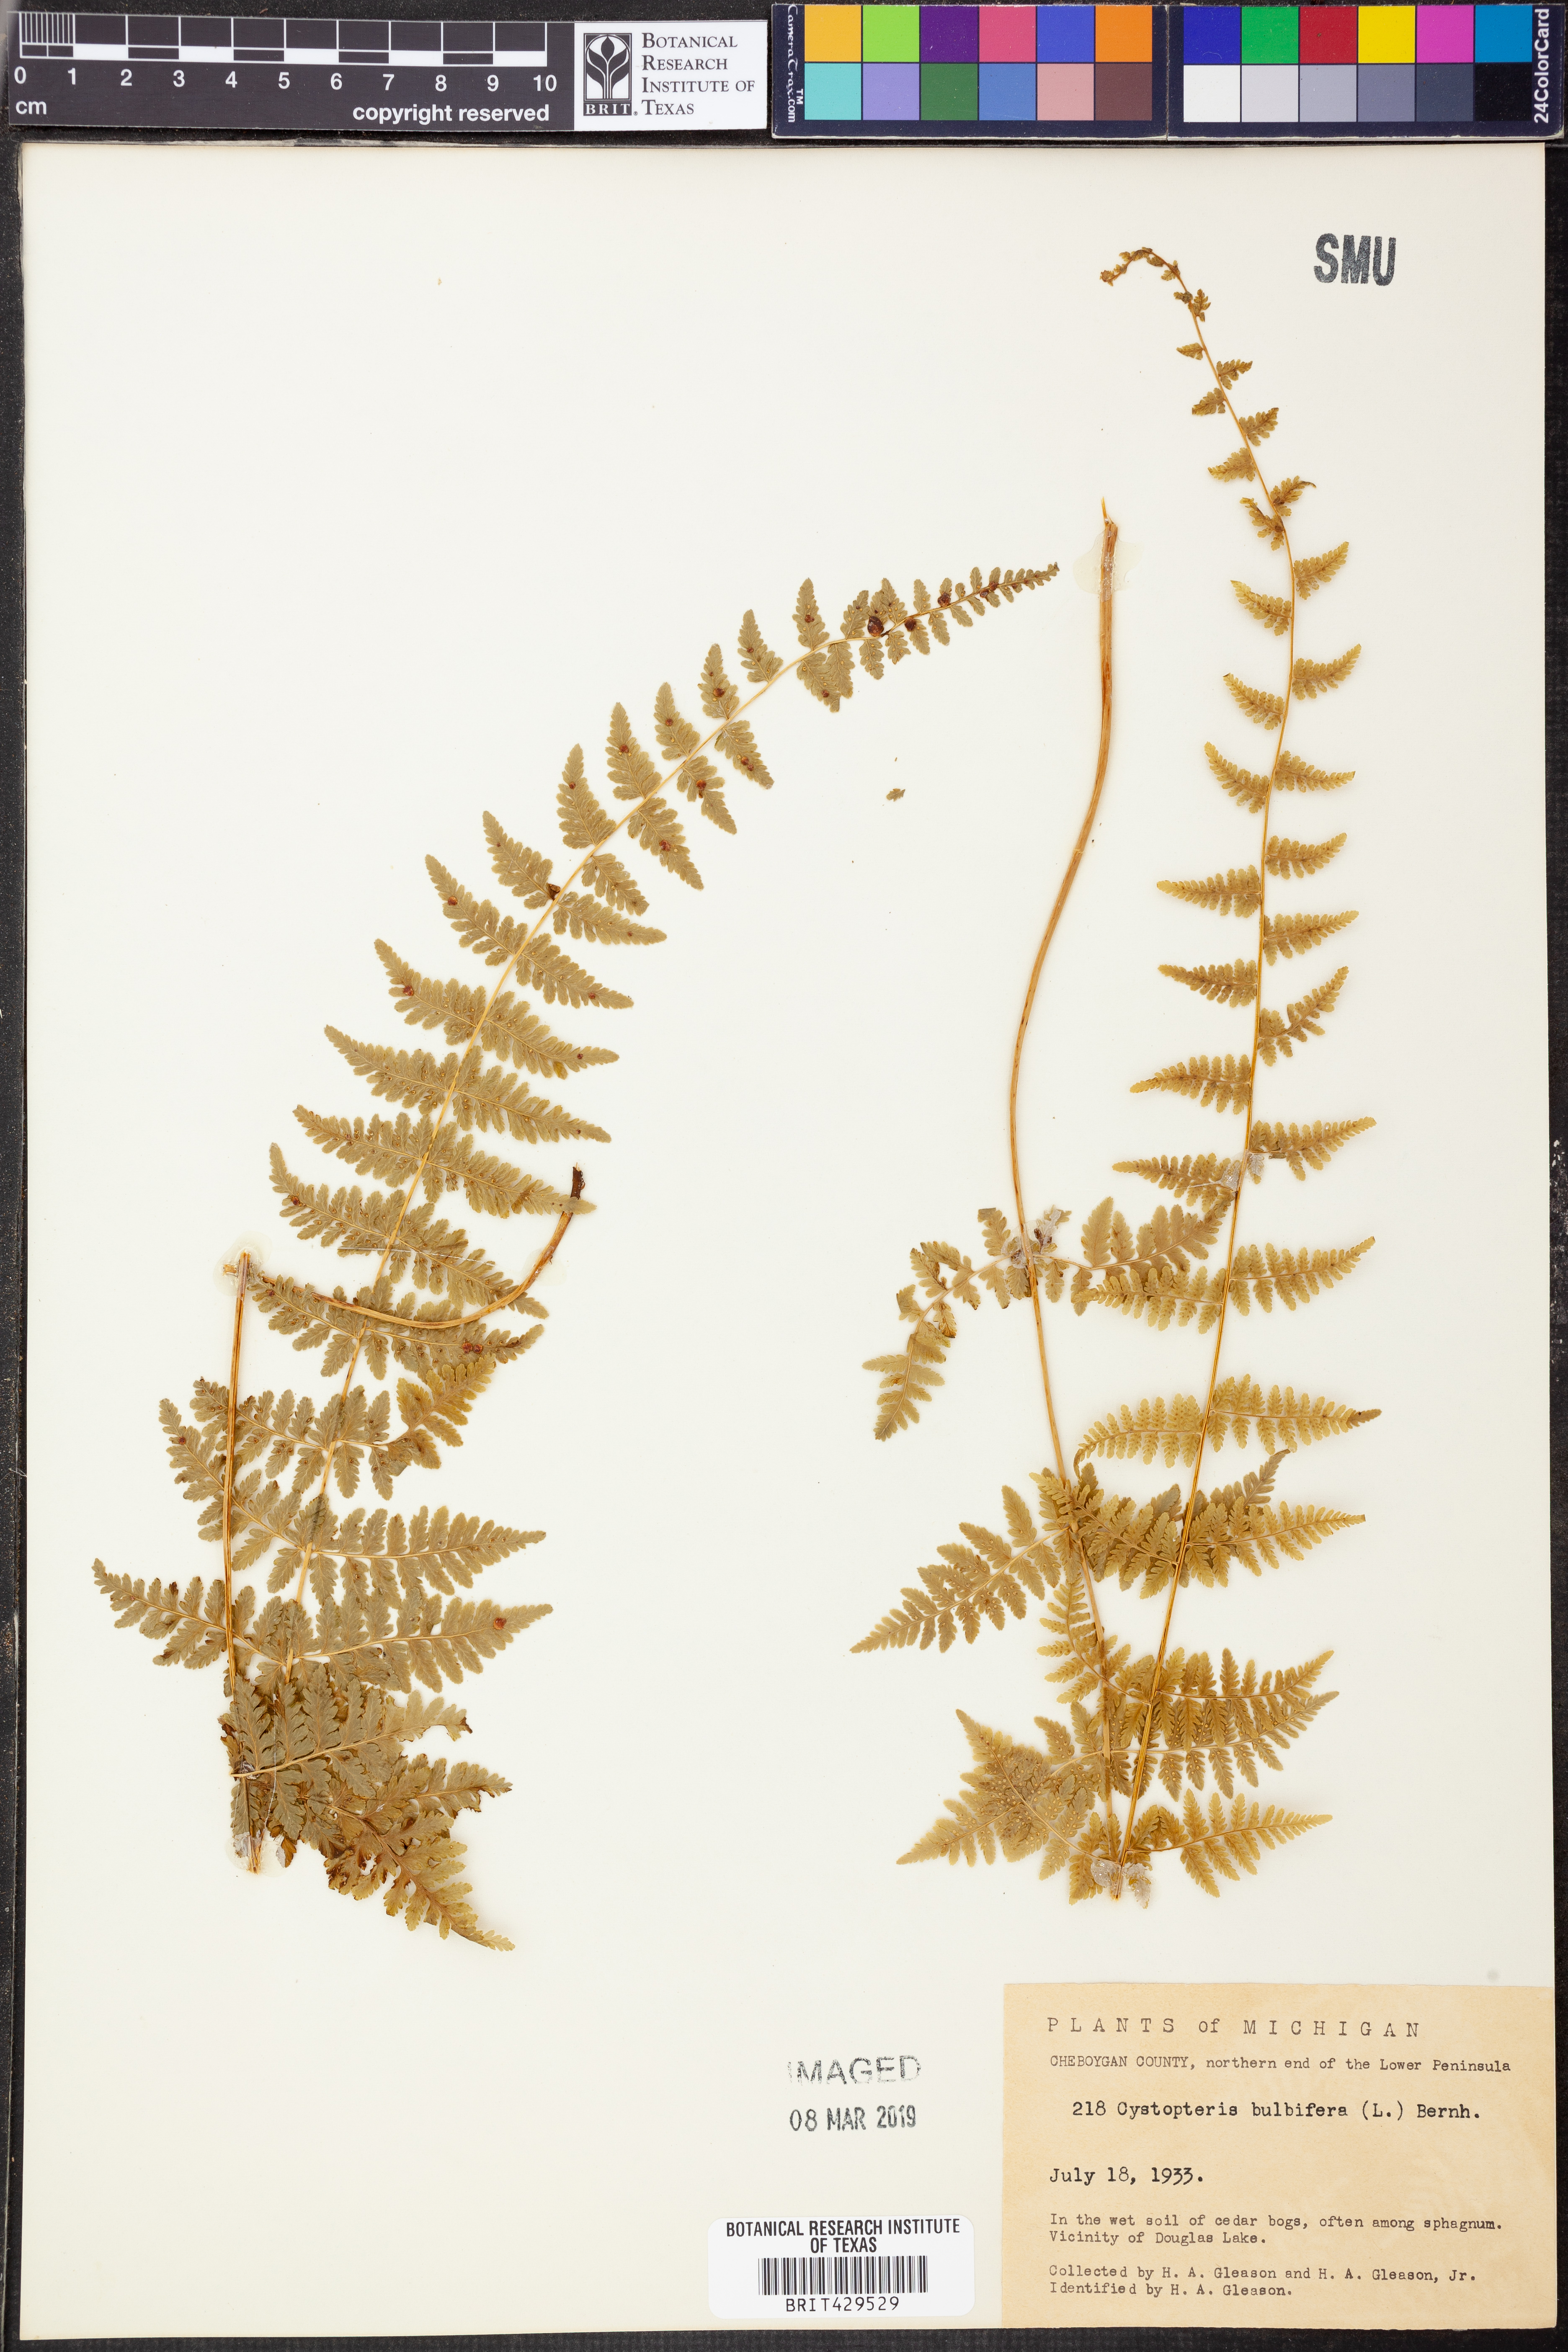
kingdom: Plantae
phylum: Tracheophyta
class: Polypodiopsida
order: Polypodiales
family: Cystopteridaceae
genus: Cystopteris
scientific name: Cystopteris bulbifera
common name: Bulblet bladder fern
